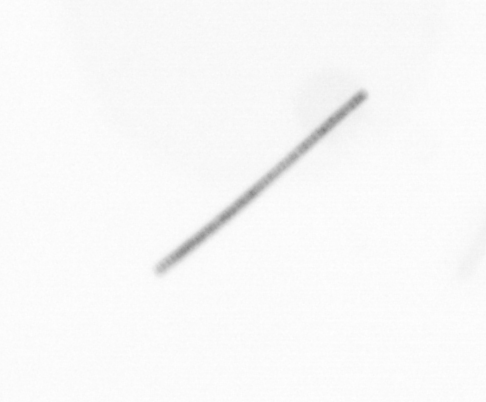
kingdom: Chromista
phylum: Ochrophyta
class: Bacillariophyceae
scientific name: Bacillariophyceae
